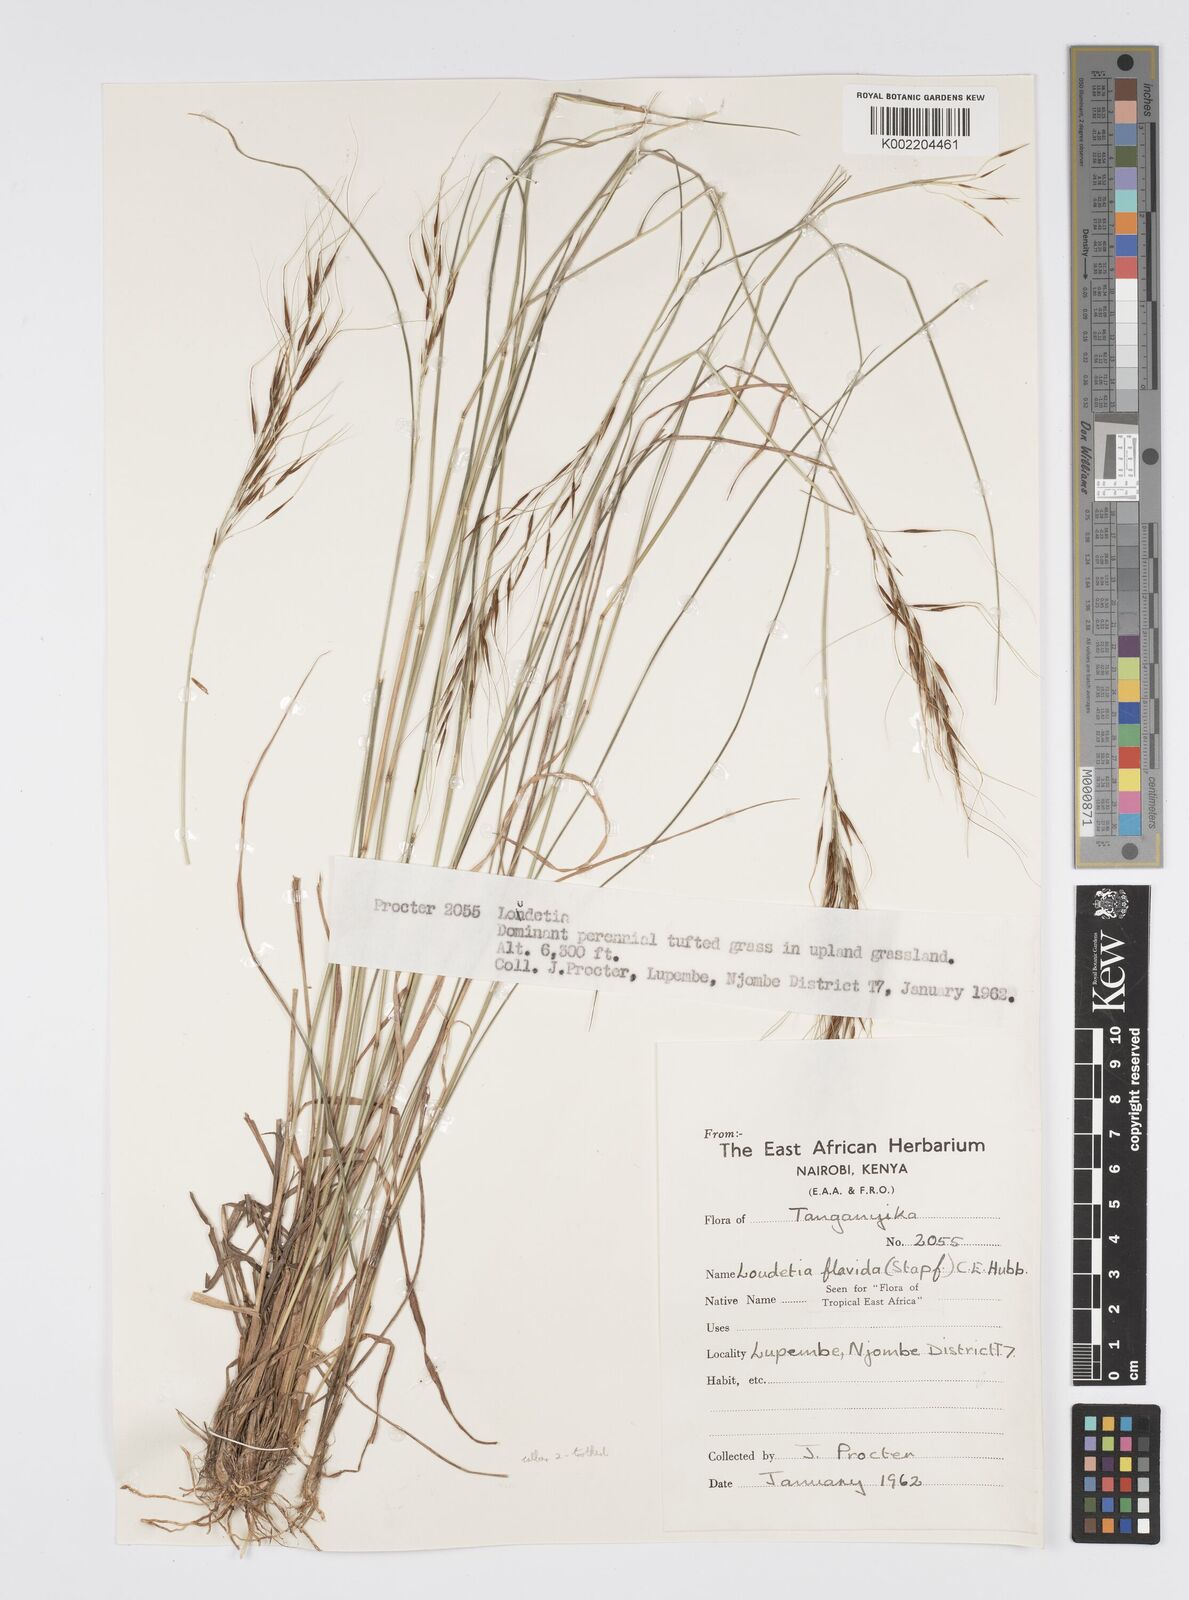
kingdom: Plantae
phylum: Tracheophyta
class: Liliopsida
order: Poales
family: Poaceae
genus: Loudetia
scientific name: Loudetia simplex
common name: Common russet grass
